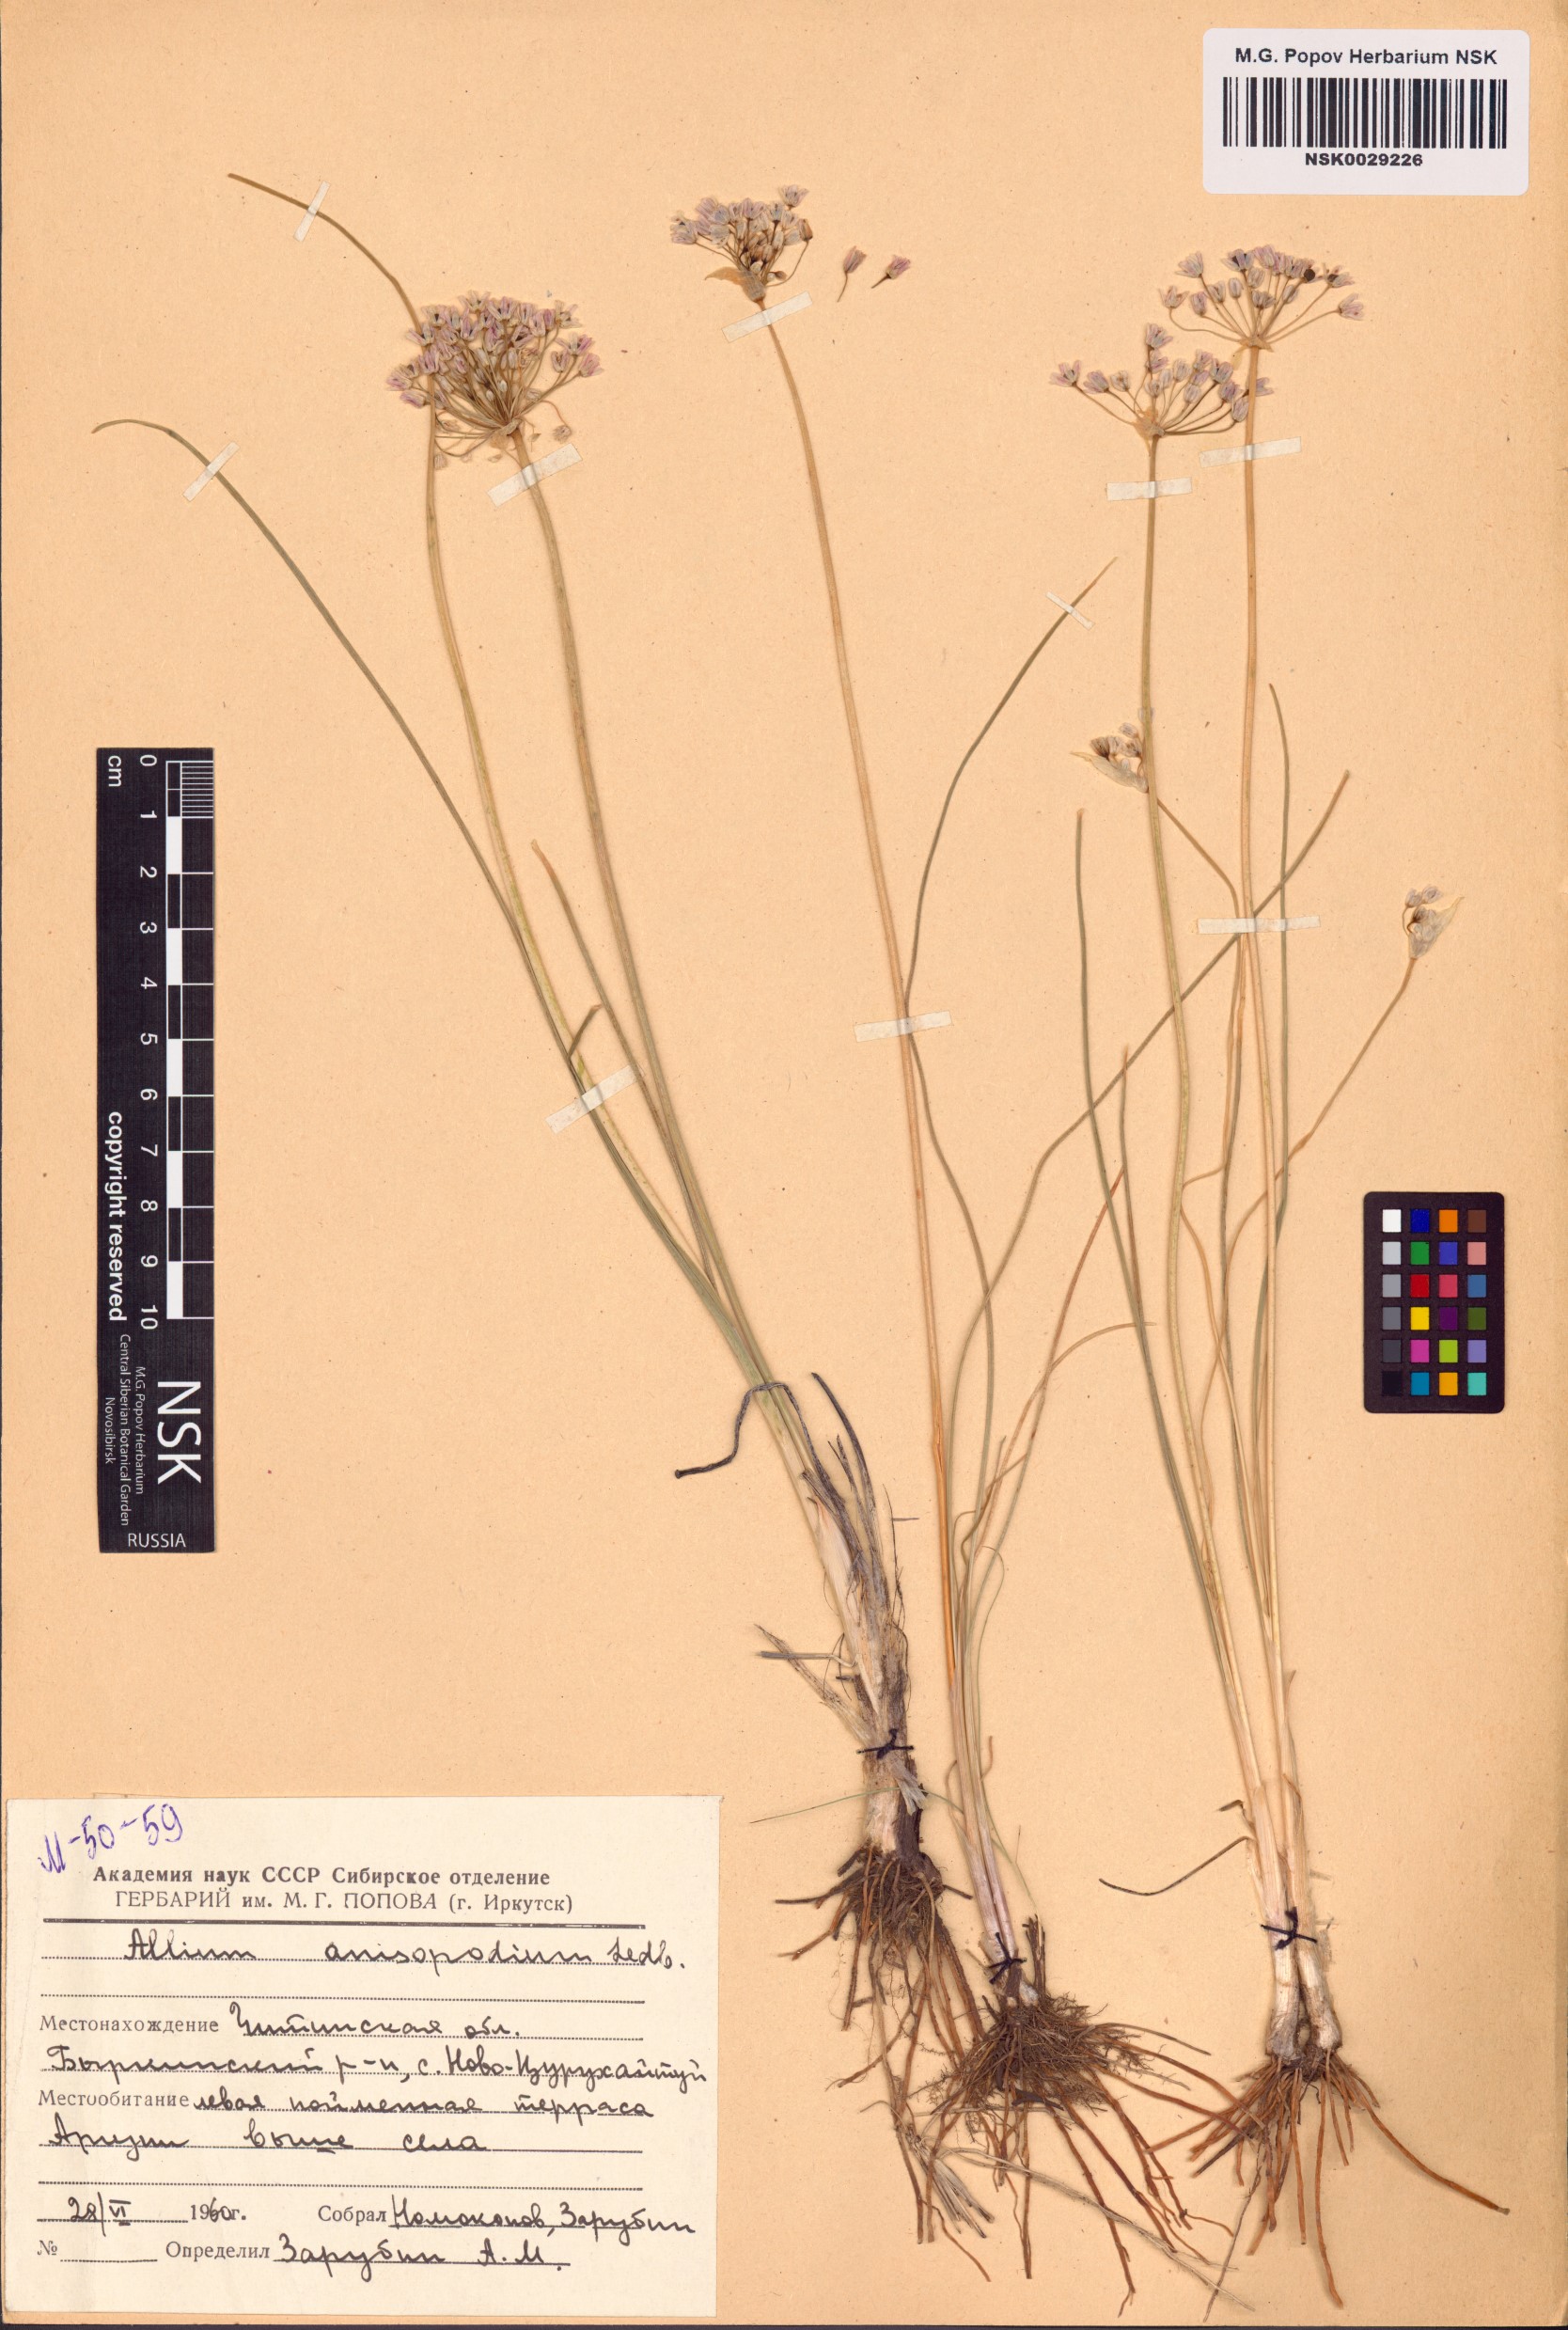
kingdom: Plantae
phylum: Tracheophyta
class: Liliopsida
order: Asparagales
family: Amaryllidaceae
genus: Allium
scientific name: Allium anisopodium
